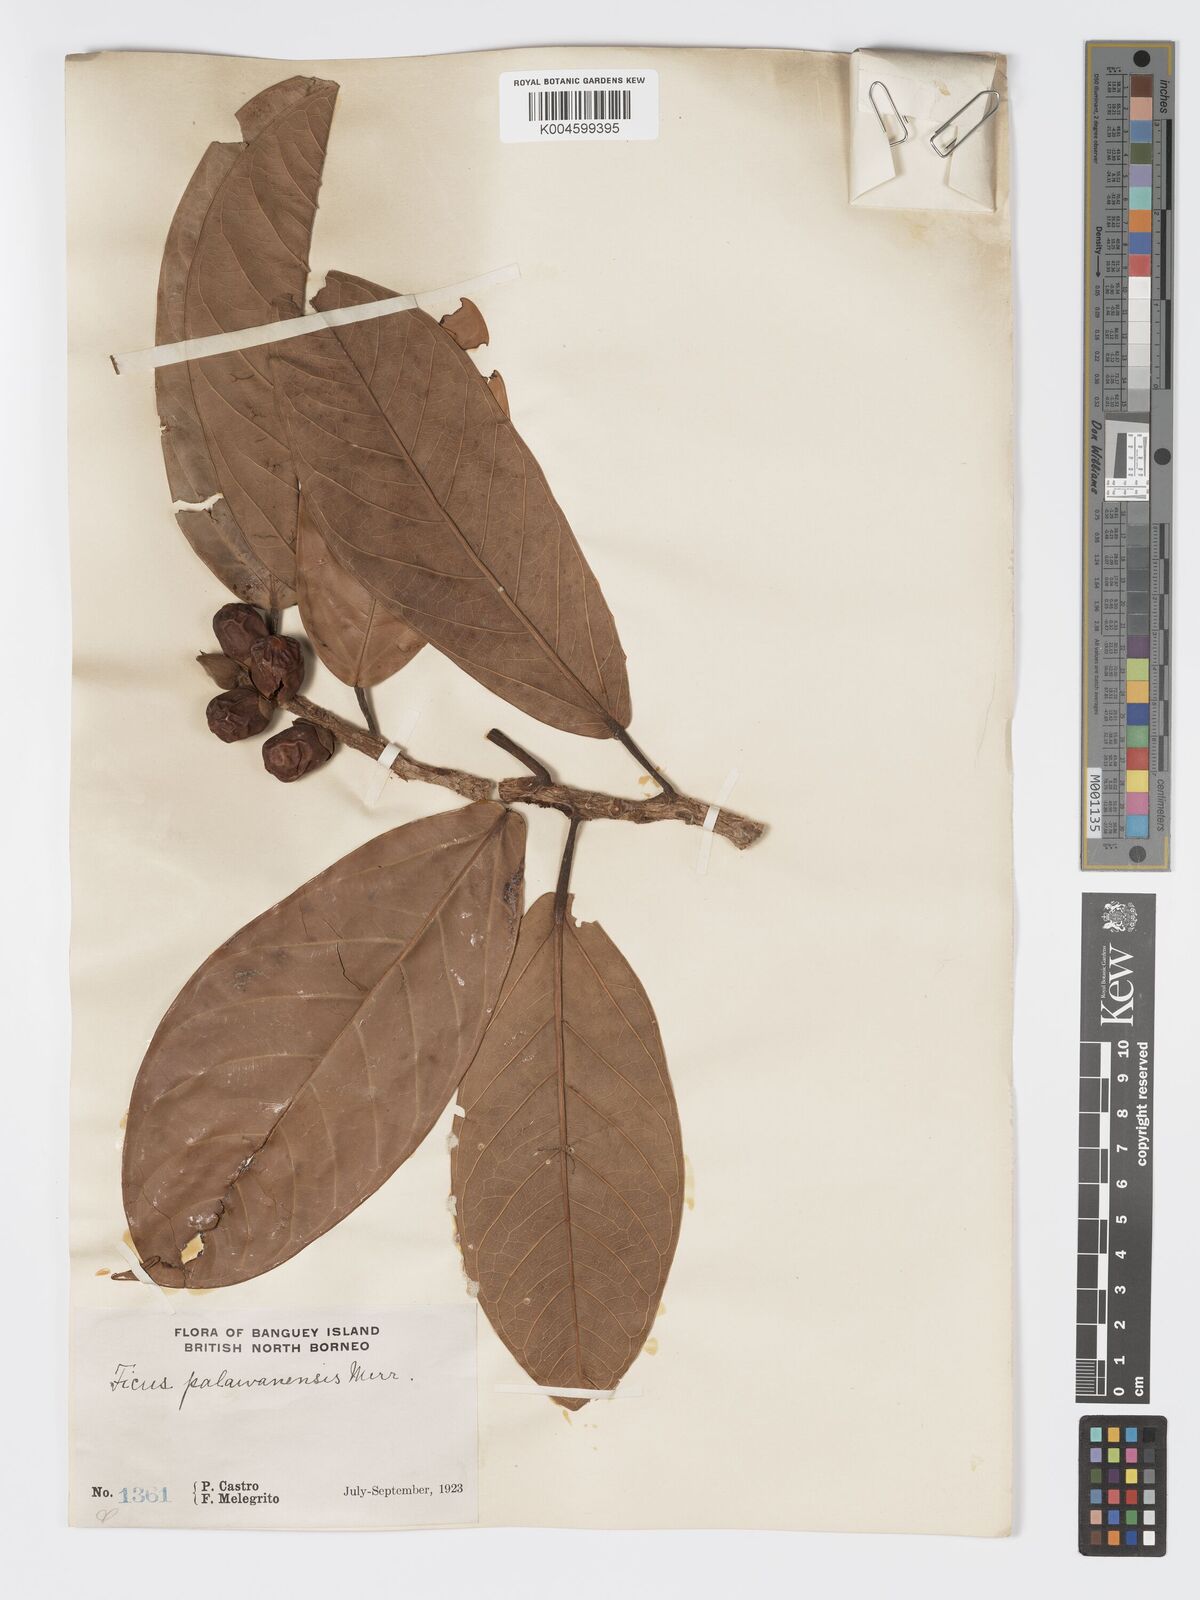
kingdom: Plantae
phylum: Tracheophyta
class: Magnoliopsida
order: Rosales
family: Moraceae
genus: Ficus
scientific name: Ficus forstenii
